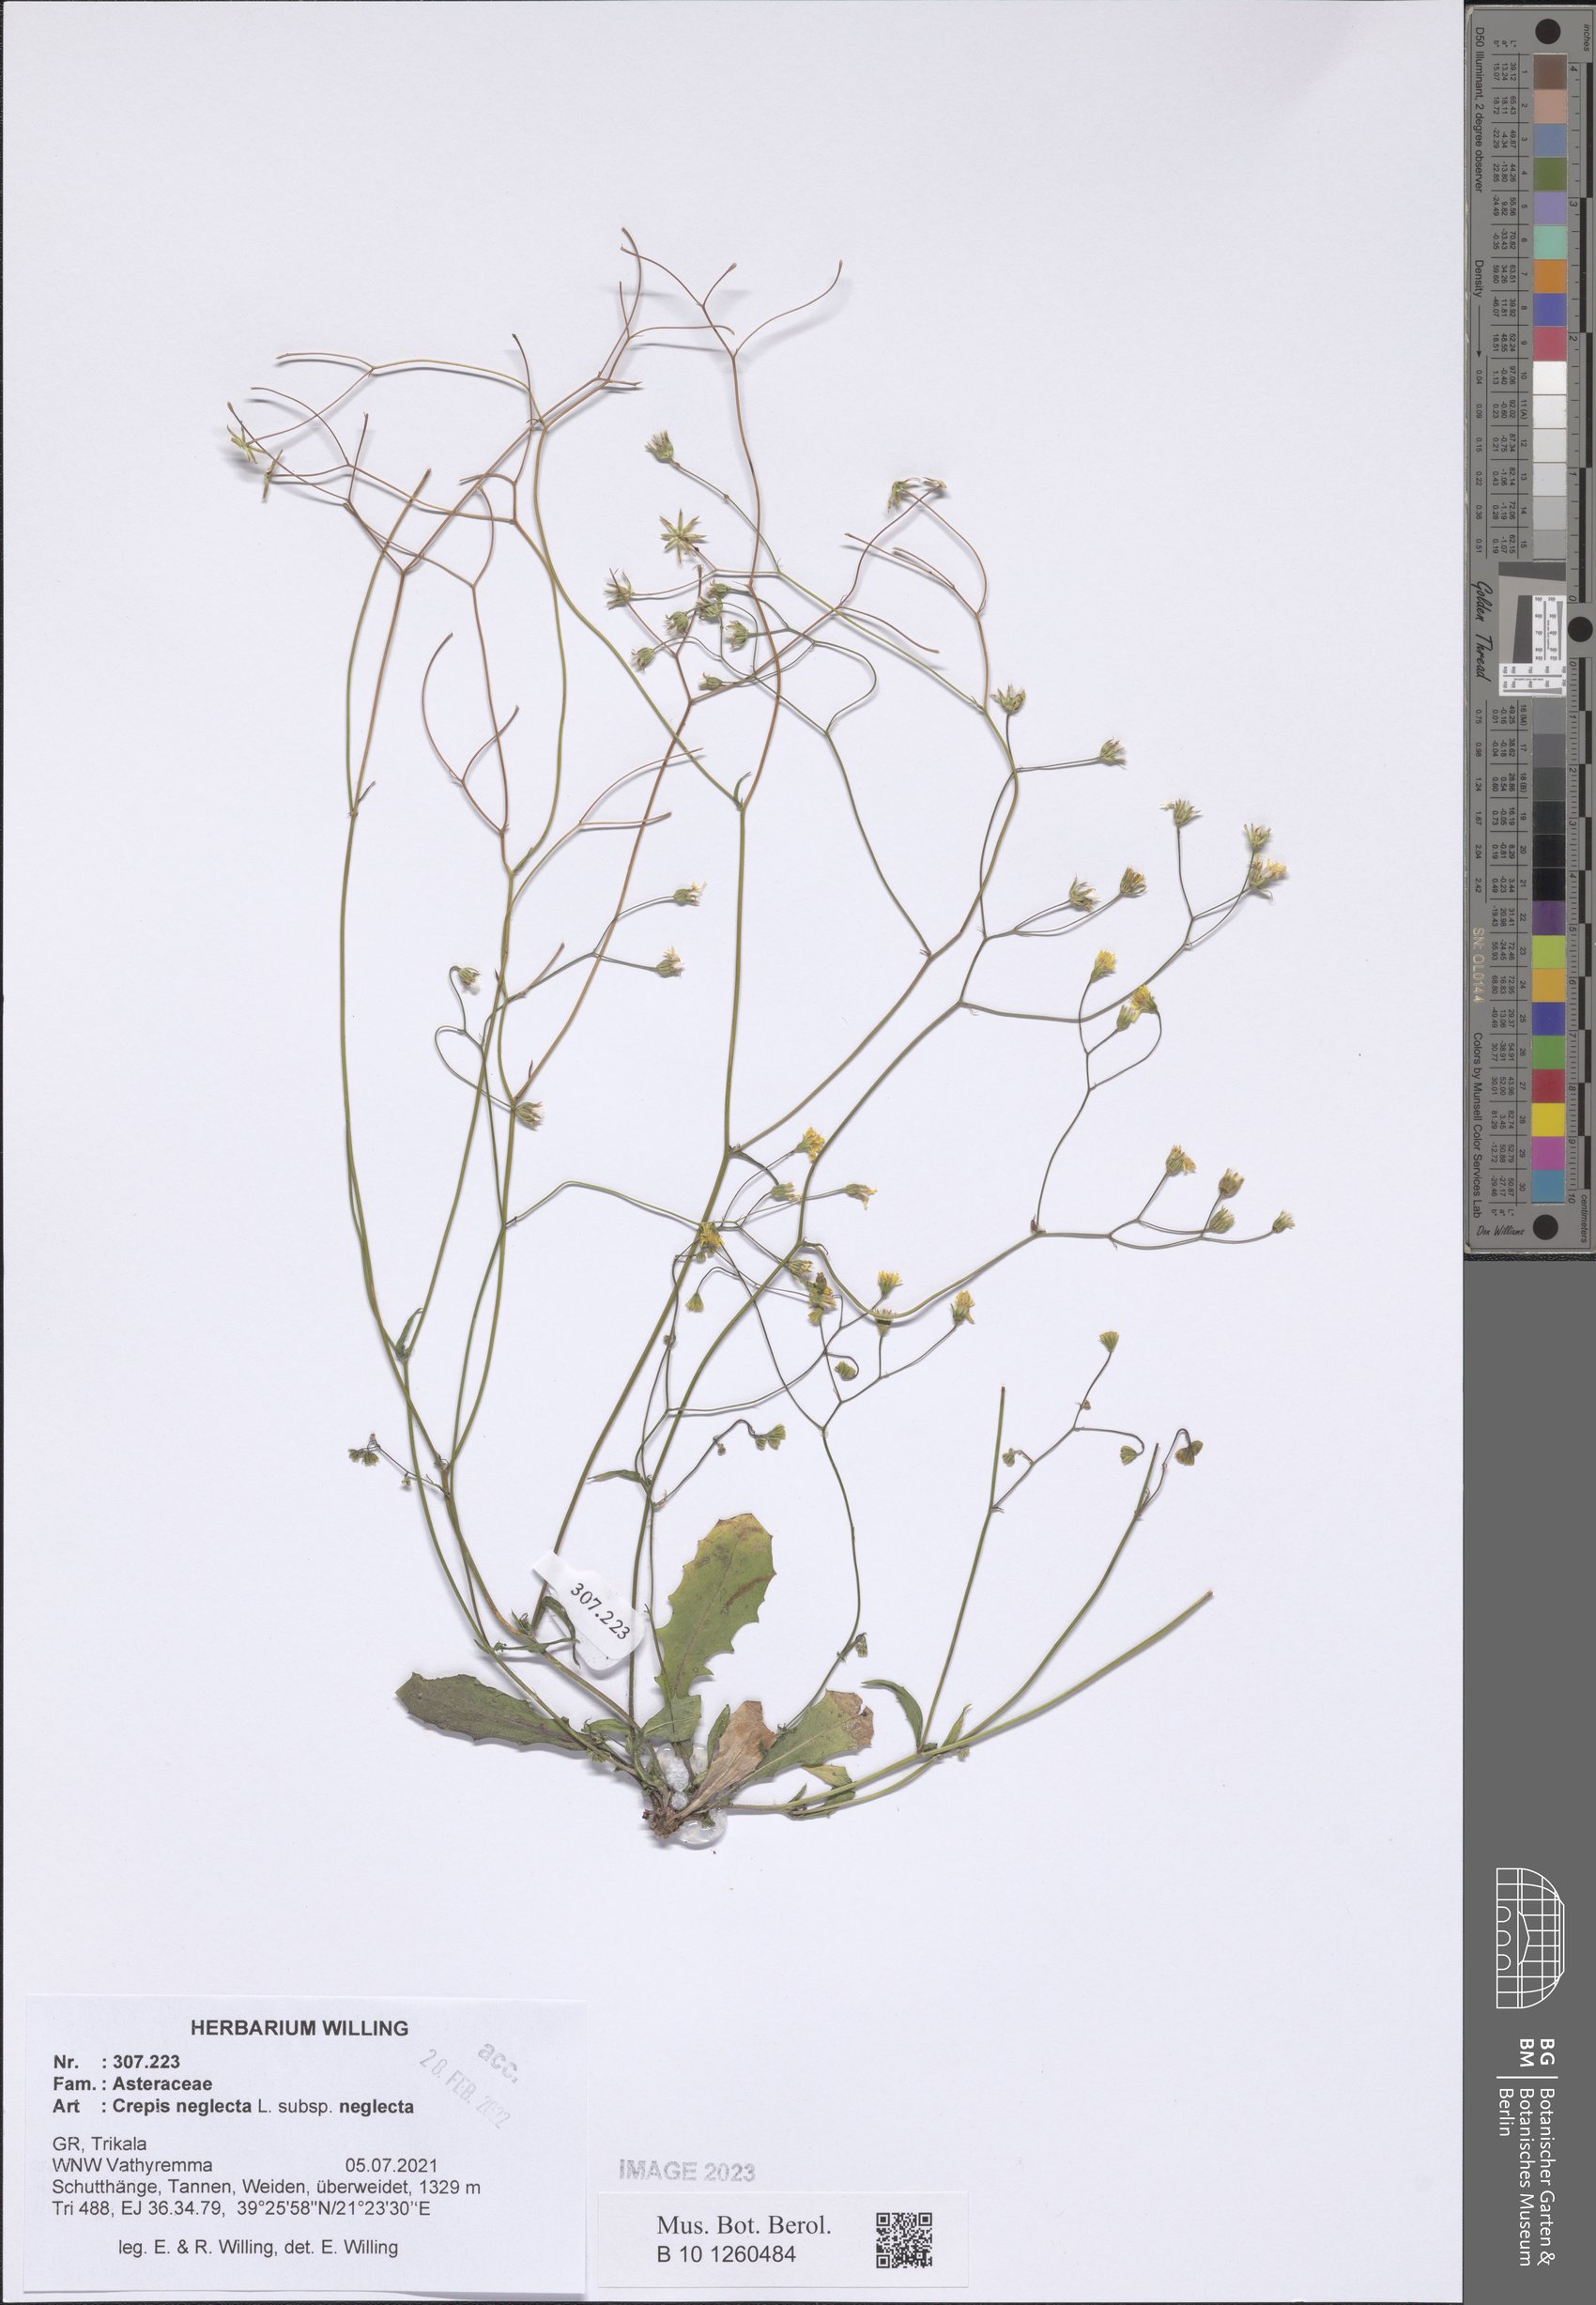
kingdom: Plantae
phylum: Tracheophyta
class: Magnoliopsida
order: Asterales
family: Asteraceae
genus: Crepis
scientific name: Crepis neglecta
